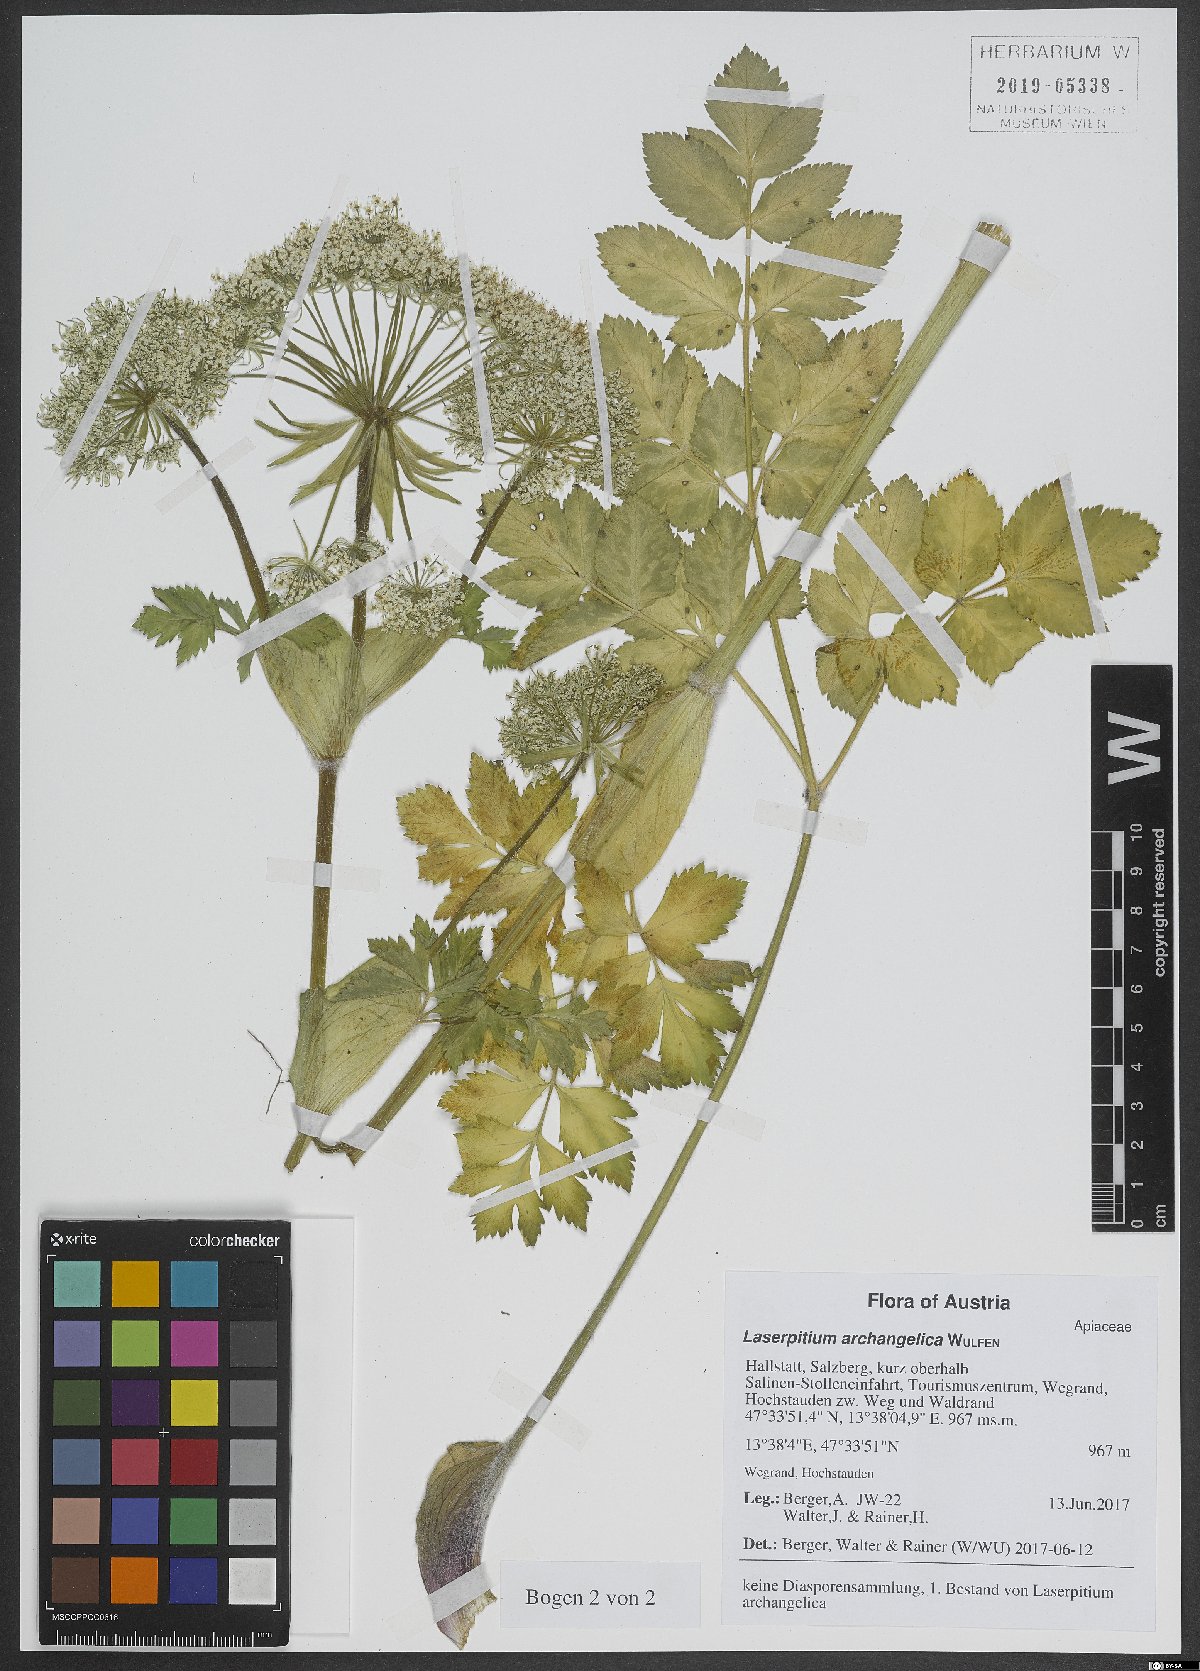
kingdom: Plantae
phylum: Tracheophyta
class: Magnoliopsida
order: Apiales
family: Apiaceae
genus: Laser
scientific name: Laser archangelica
